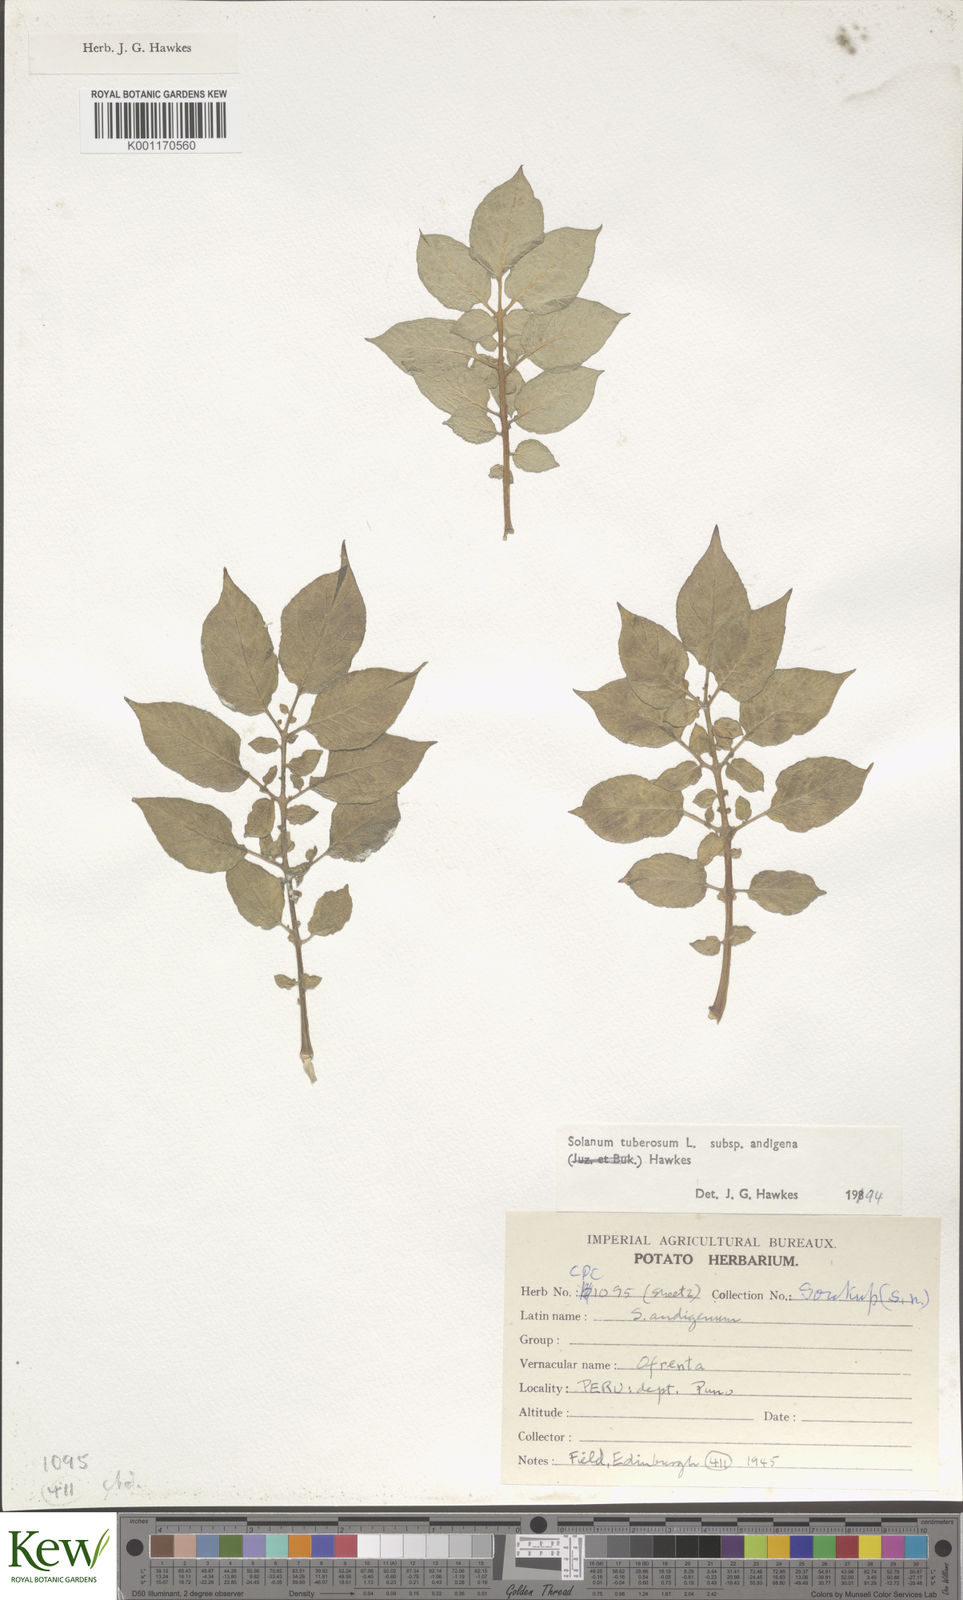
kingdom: Plantae
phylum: Tracheophyta
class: Magnoliopsida
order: Solanales
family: Solanaceae
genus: Solanum
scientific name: Solanum tuberosum
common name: Potato
